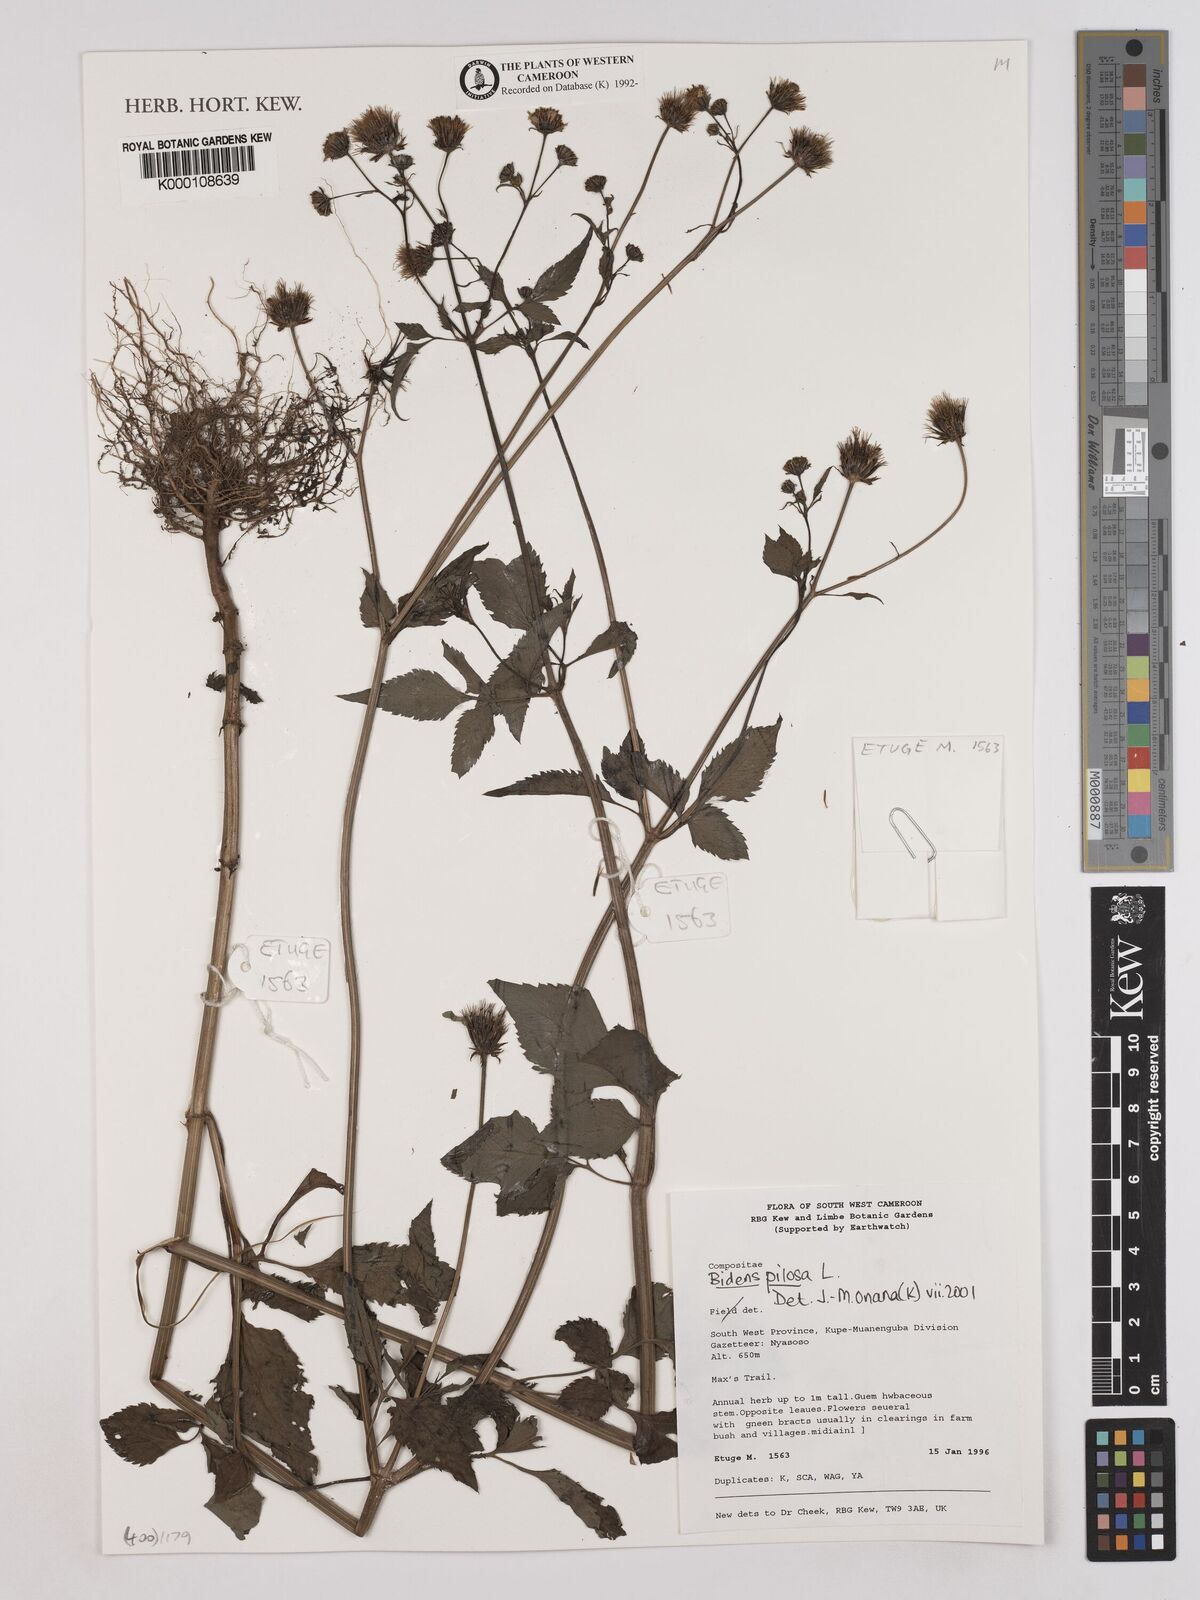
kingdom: Plantae
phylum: Tracheophyta
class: Magnoliopsida
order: Asterales
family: Asteraceae
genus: Bidens
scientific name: Bidens pilosa
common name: Black-jack
